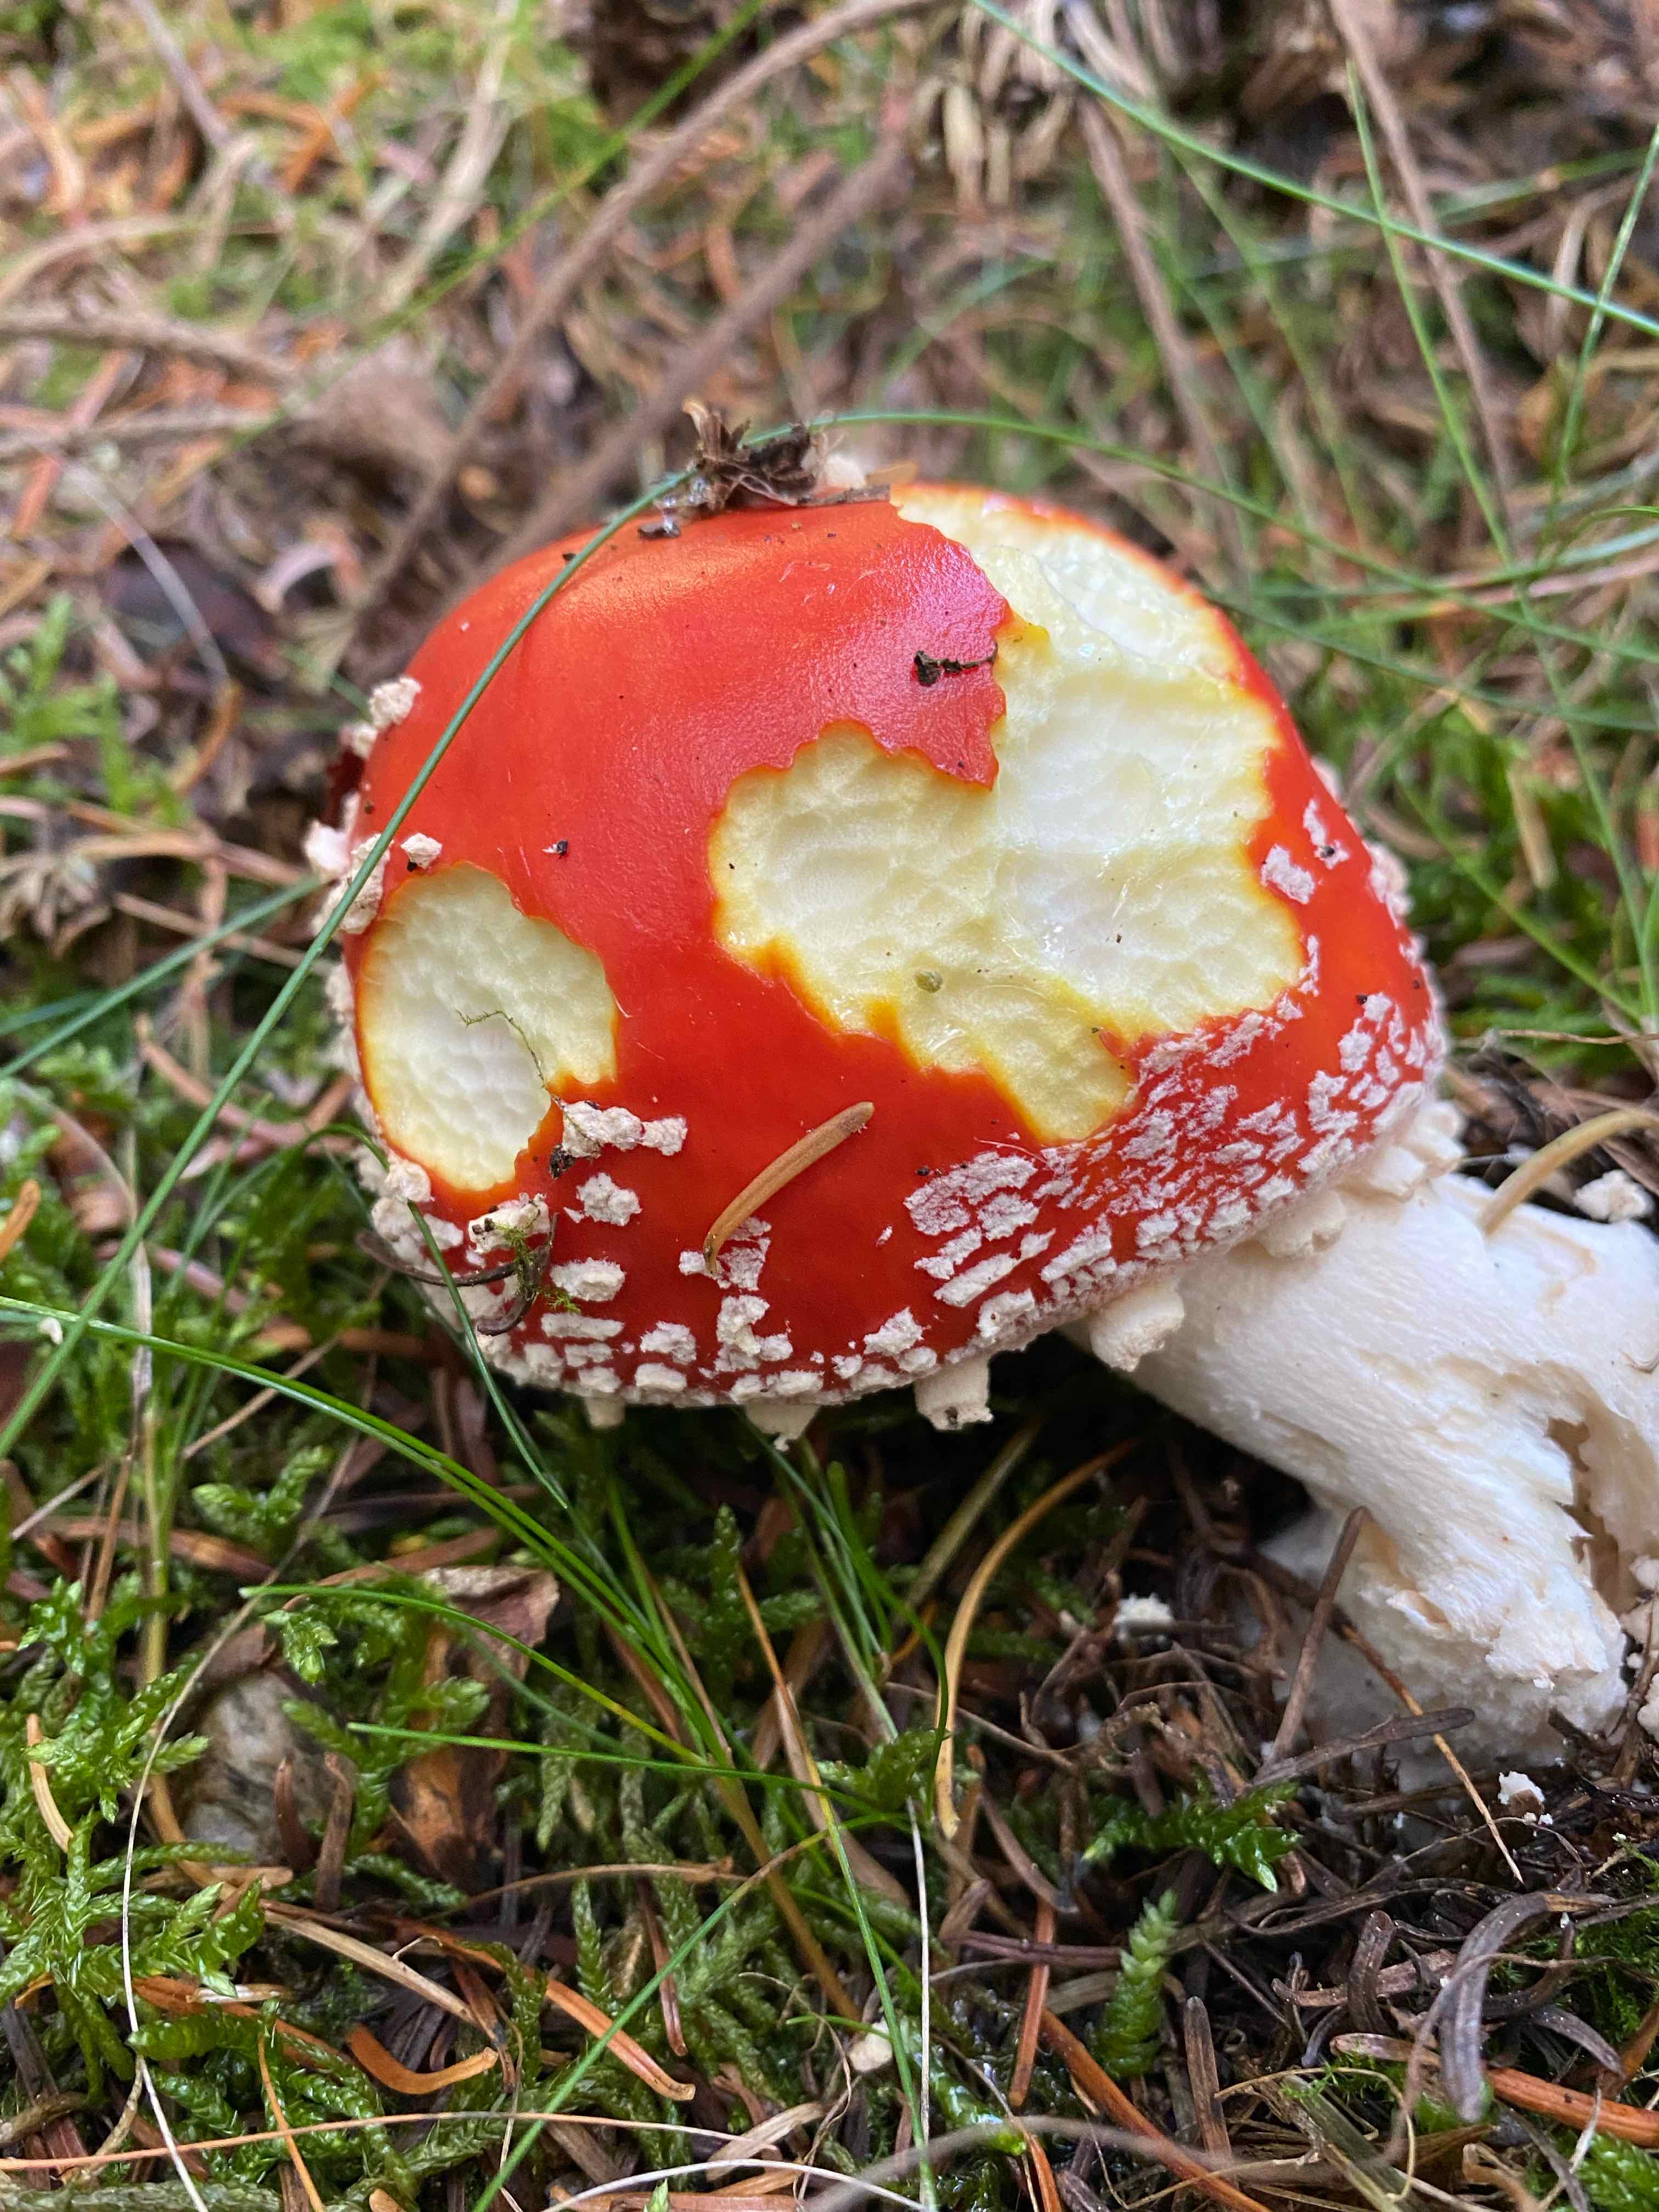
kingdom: Fungi
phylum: Basidiomycota
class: Agaricomycetes
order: Agaricales
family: Amanitaceae
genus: Amanita
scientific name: Amanita muscaria
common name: rød fluesvamp
